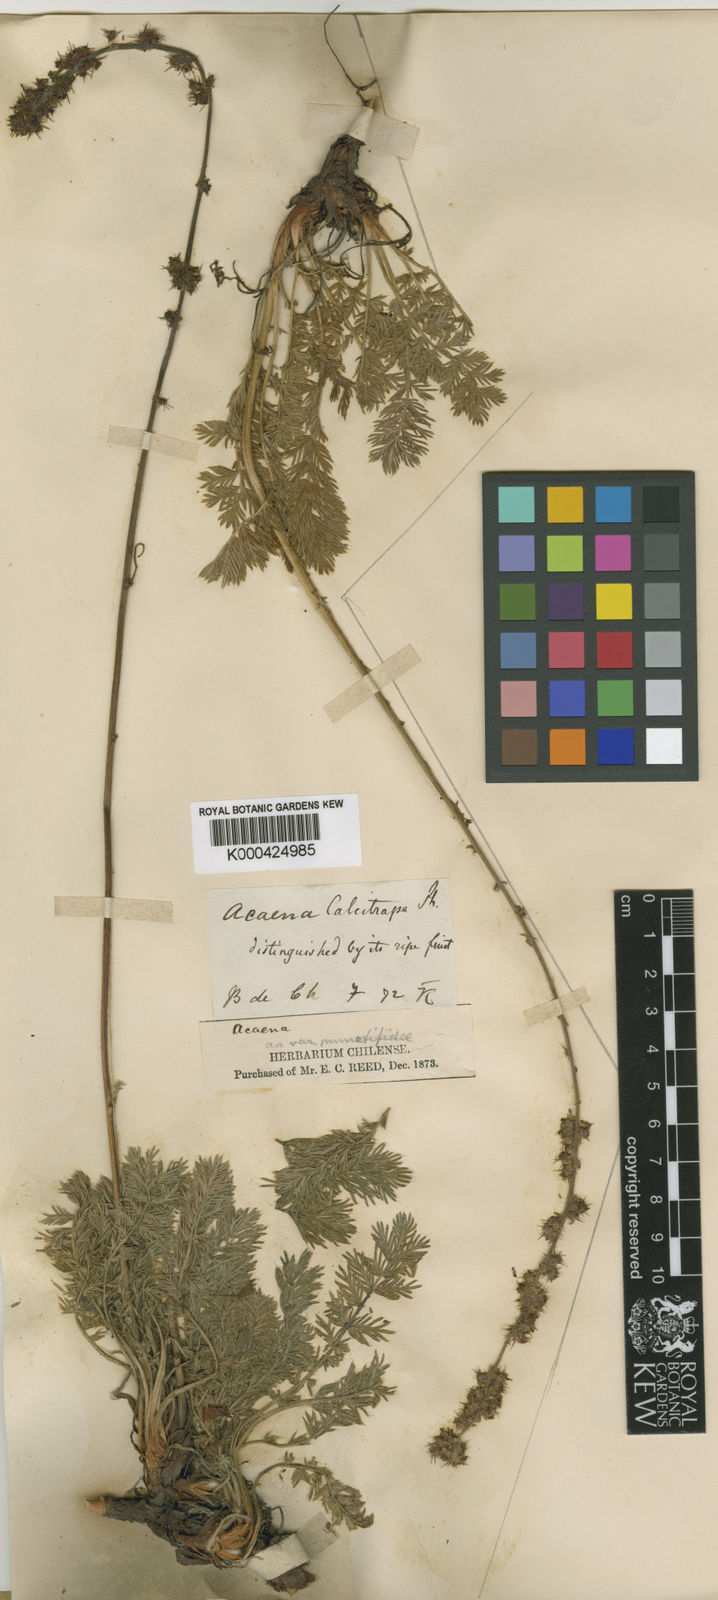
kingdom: Plantae
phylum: Tracheophyta
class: Magnoliopsida
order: Rosales
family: Rosaceae
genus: Acaena
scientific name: Acaena pinnatifida
